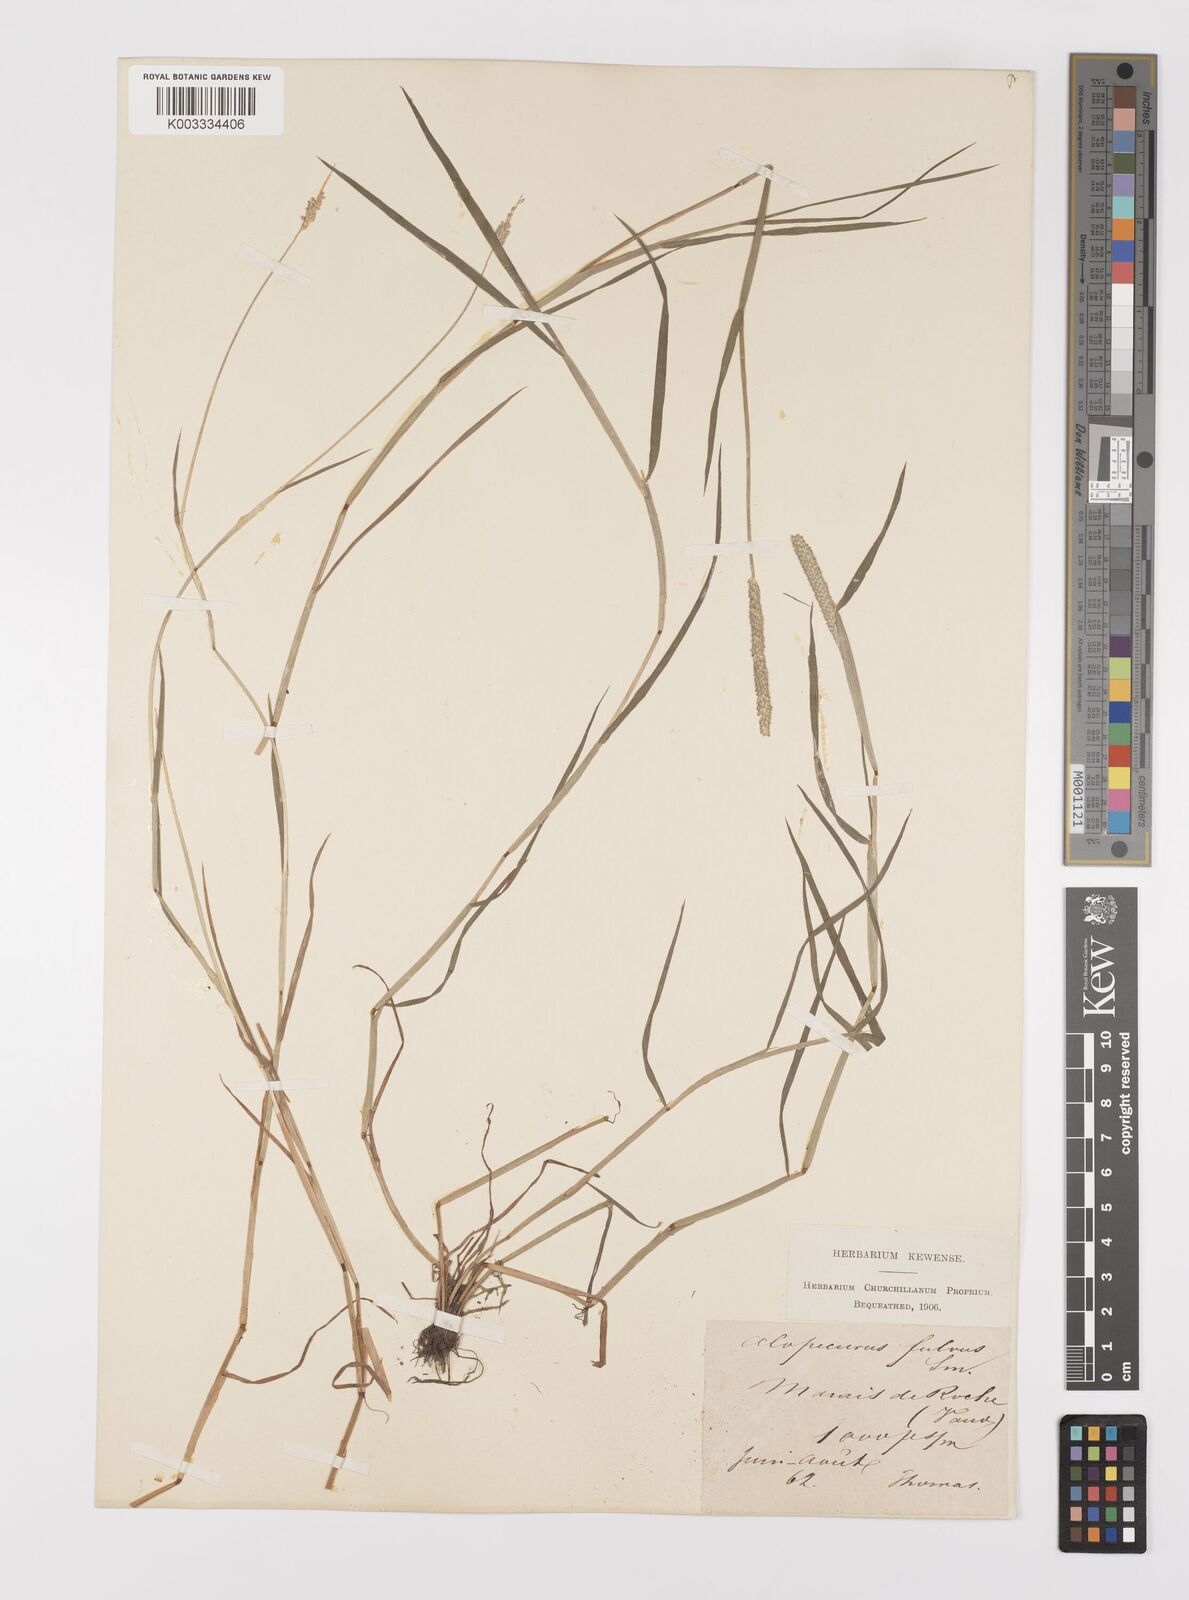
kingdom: Plantae
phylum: Tracheophyta
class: Liliopsida
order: Poales
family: Poaceae
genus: Alopecurus
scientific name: Alopecurus aequalis
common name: Orange foxtail
